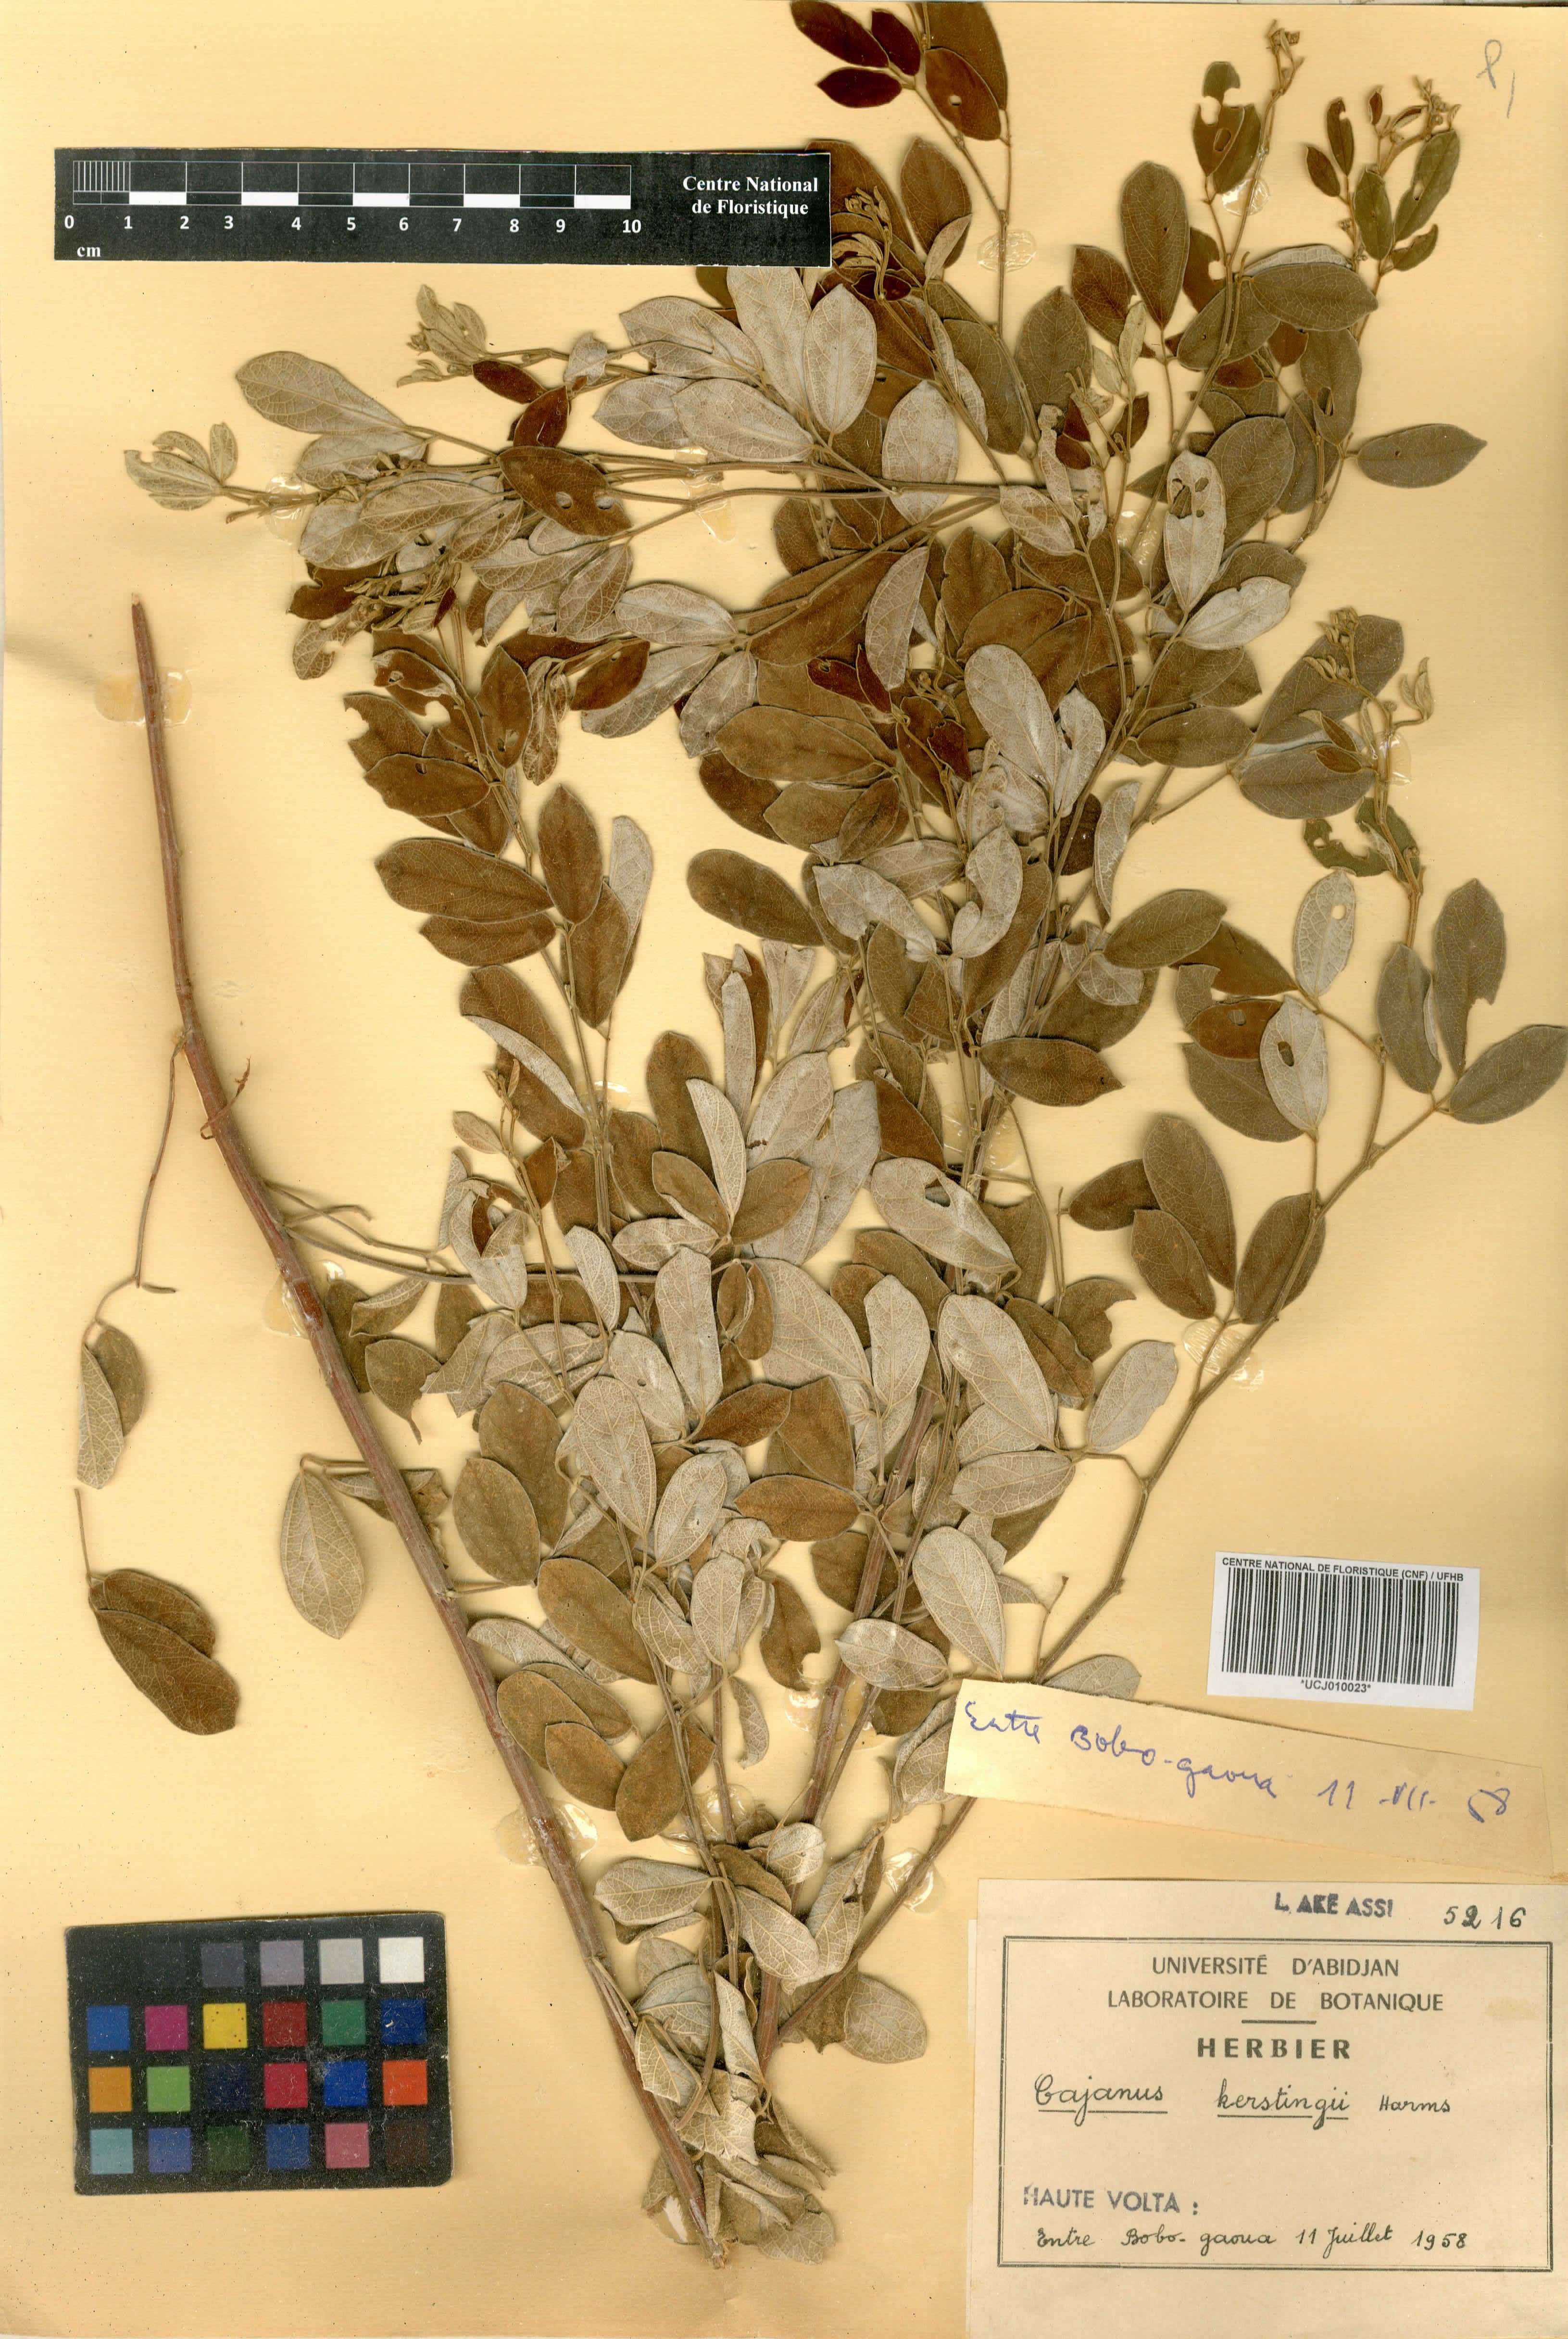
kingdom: Plantae
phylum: Tracheophyta
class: Magnoliopsida
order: Fabales
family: Fabaceae
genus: Cajanus
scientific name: Cajanus kerstingii
